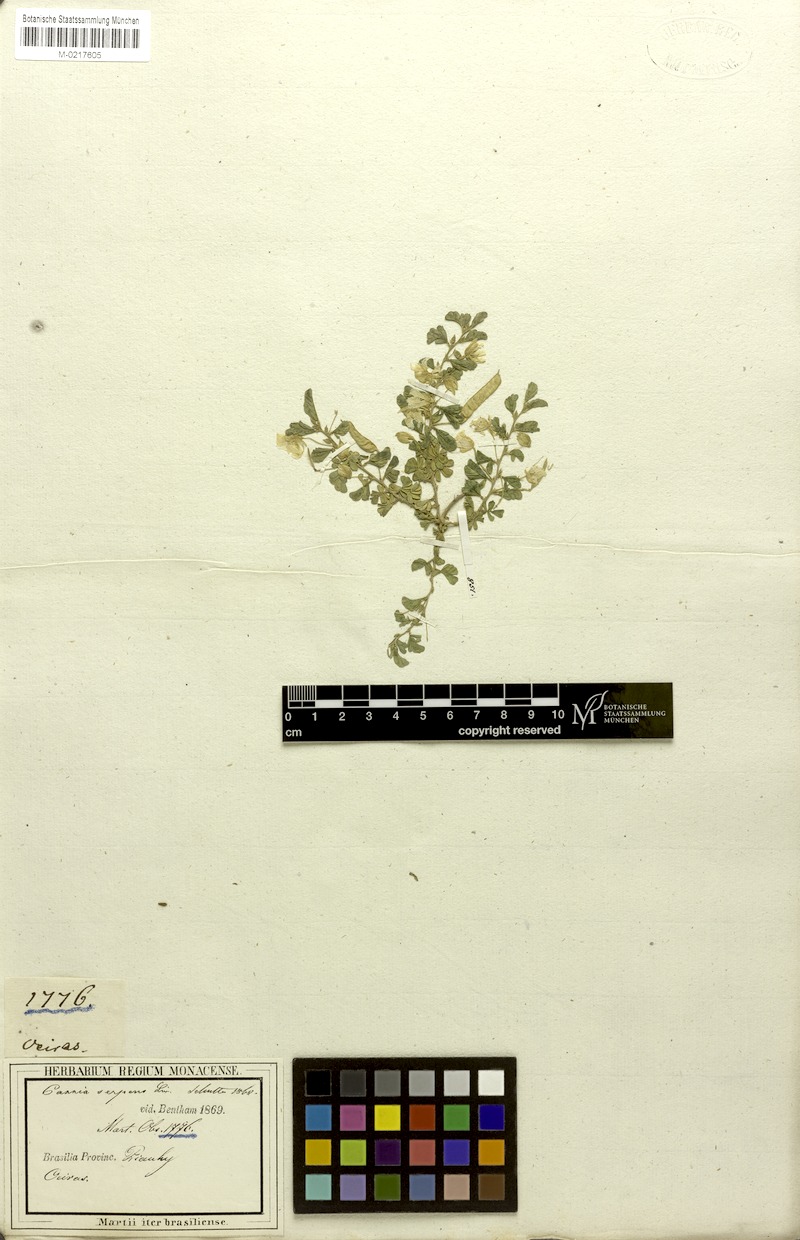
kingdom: Plantae
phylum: Tracheophyta
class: Magnoliopsida
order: Fabales
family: Fabaceae
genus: Chamaecrista
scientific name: Chamaecrista serpens
